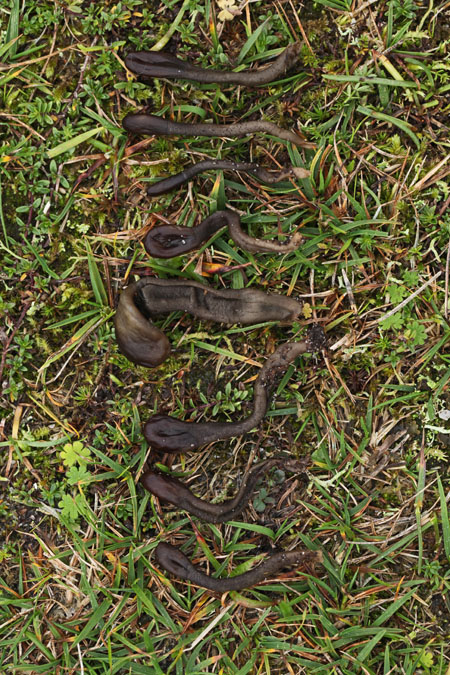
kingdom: Fungi
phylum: Ascomycota
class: Geoglossomycetes
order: Geoglossales
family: Geoglossaceae
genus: Geoglossum
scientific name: Geoglossum atropurpureum
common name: purpursort farvetunge
